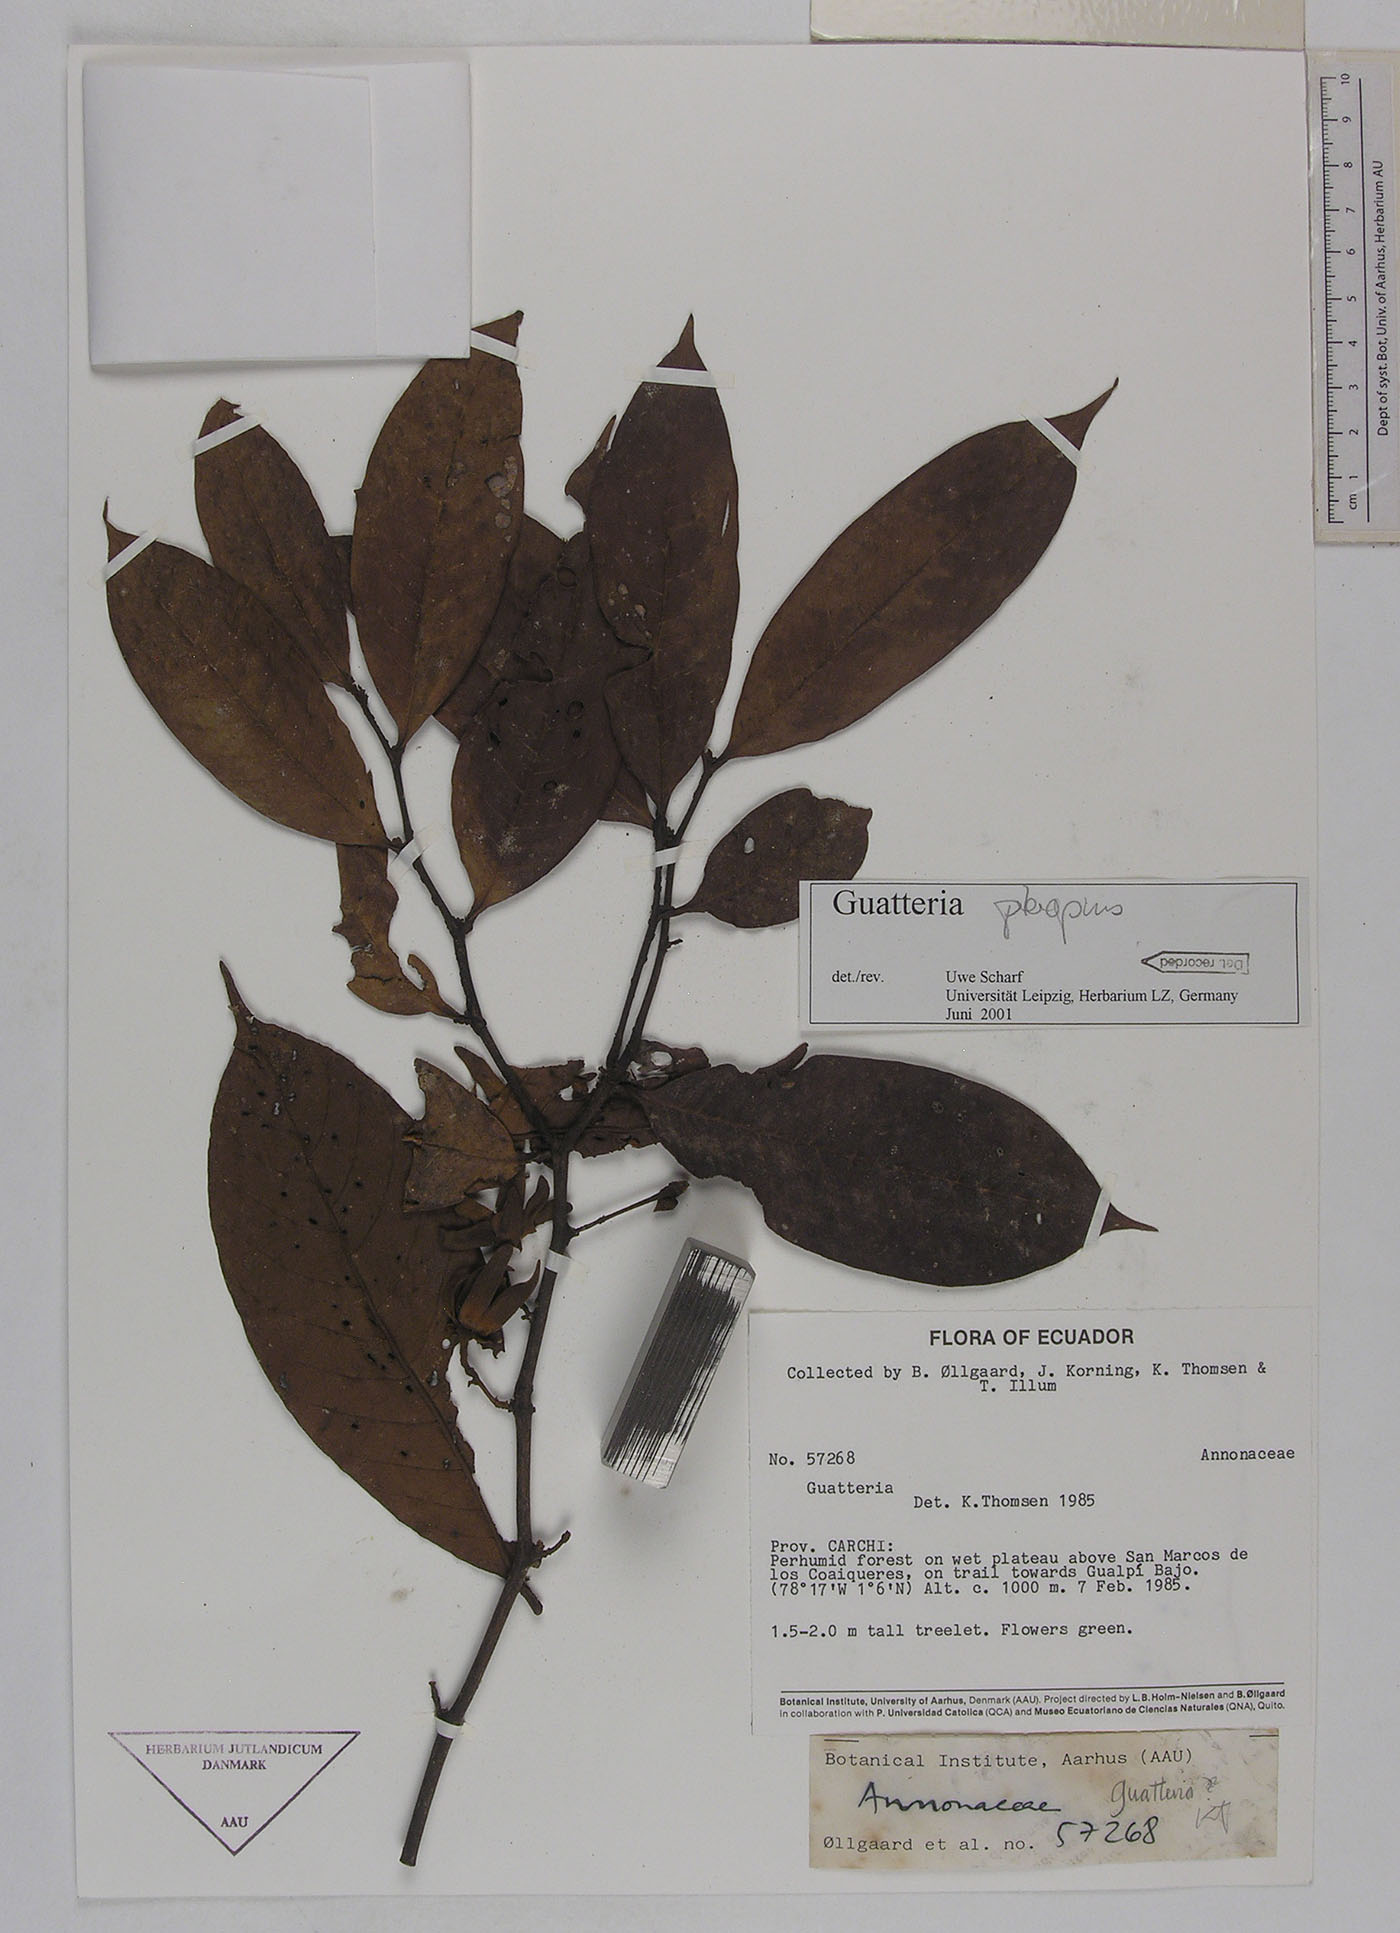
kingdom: Plantae
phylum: Tracheophyta
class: Magnoliopsida
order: Magnoliales
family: Annonaceae
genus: Guatteria
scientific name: Guatteria punctata
